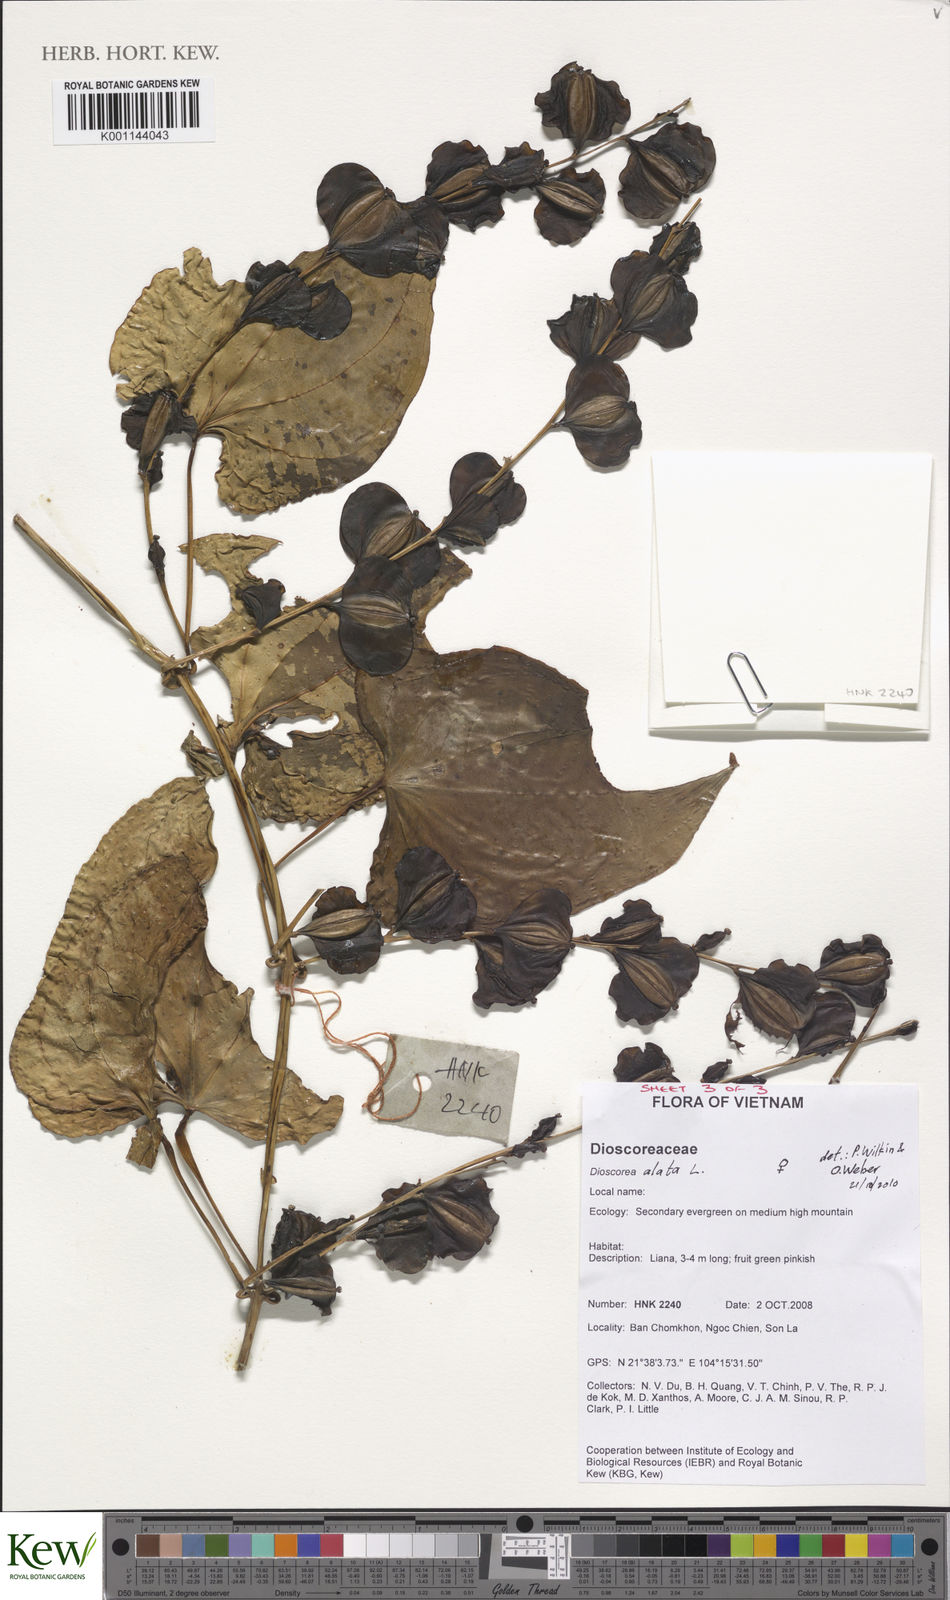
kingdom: Plantae
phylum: Tracheophyta
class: Liliopsida
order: Dioscoreales
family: Dioscoreaceae
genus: Dioscorea
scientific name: Dioscorea alata
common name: Water yam
